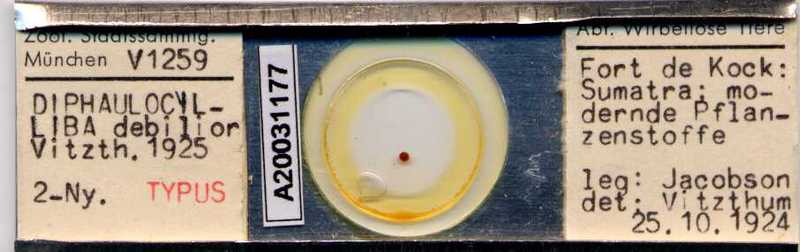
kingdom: Animalia
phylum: Arthropoda
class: Arachnida
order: Mesostigmata
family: Uropodidae
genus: Uropoda
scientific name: Uropoda
